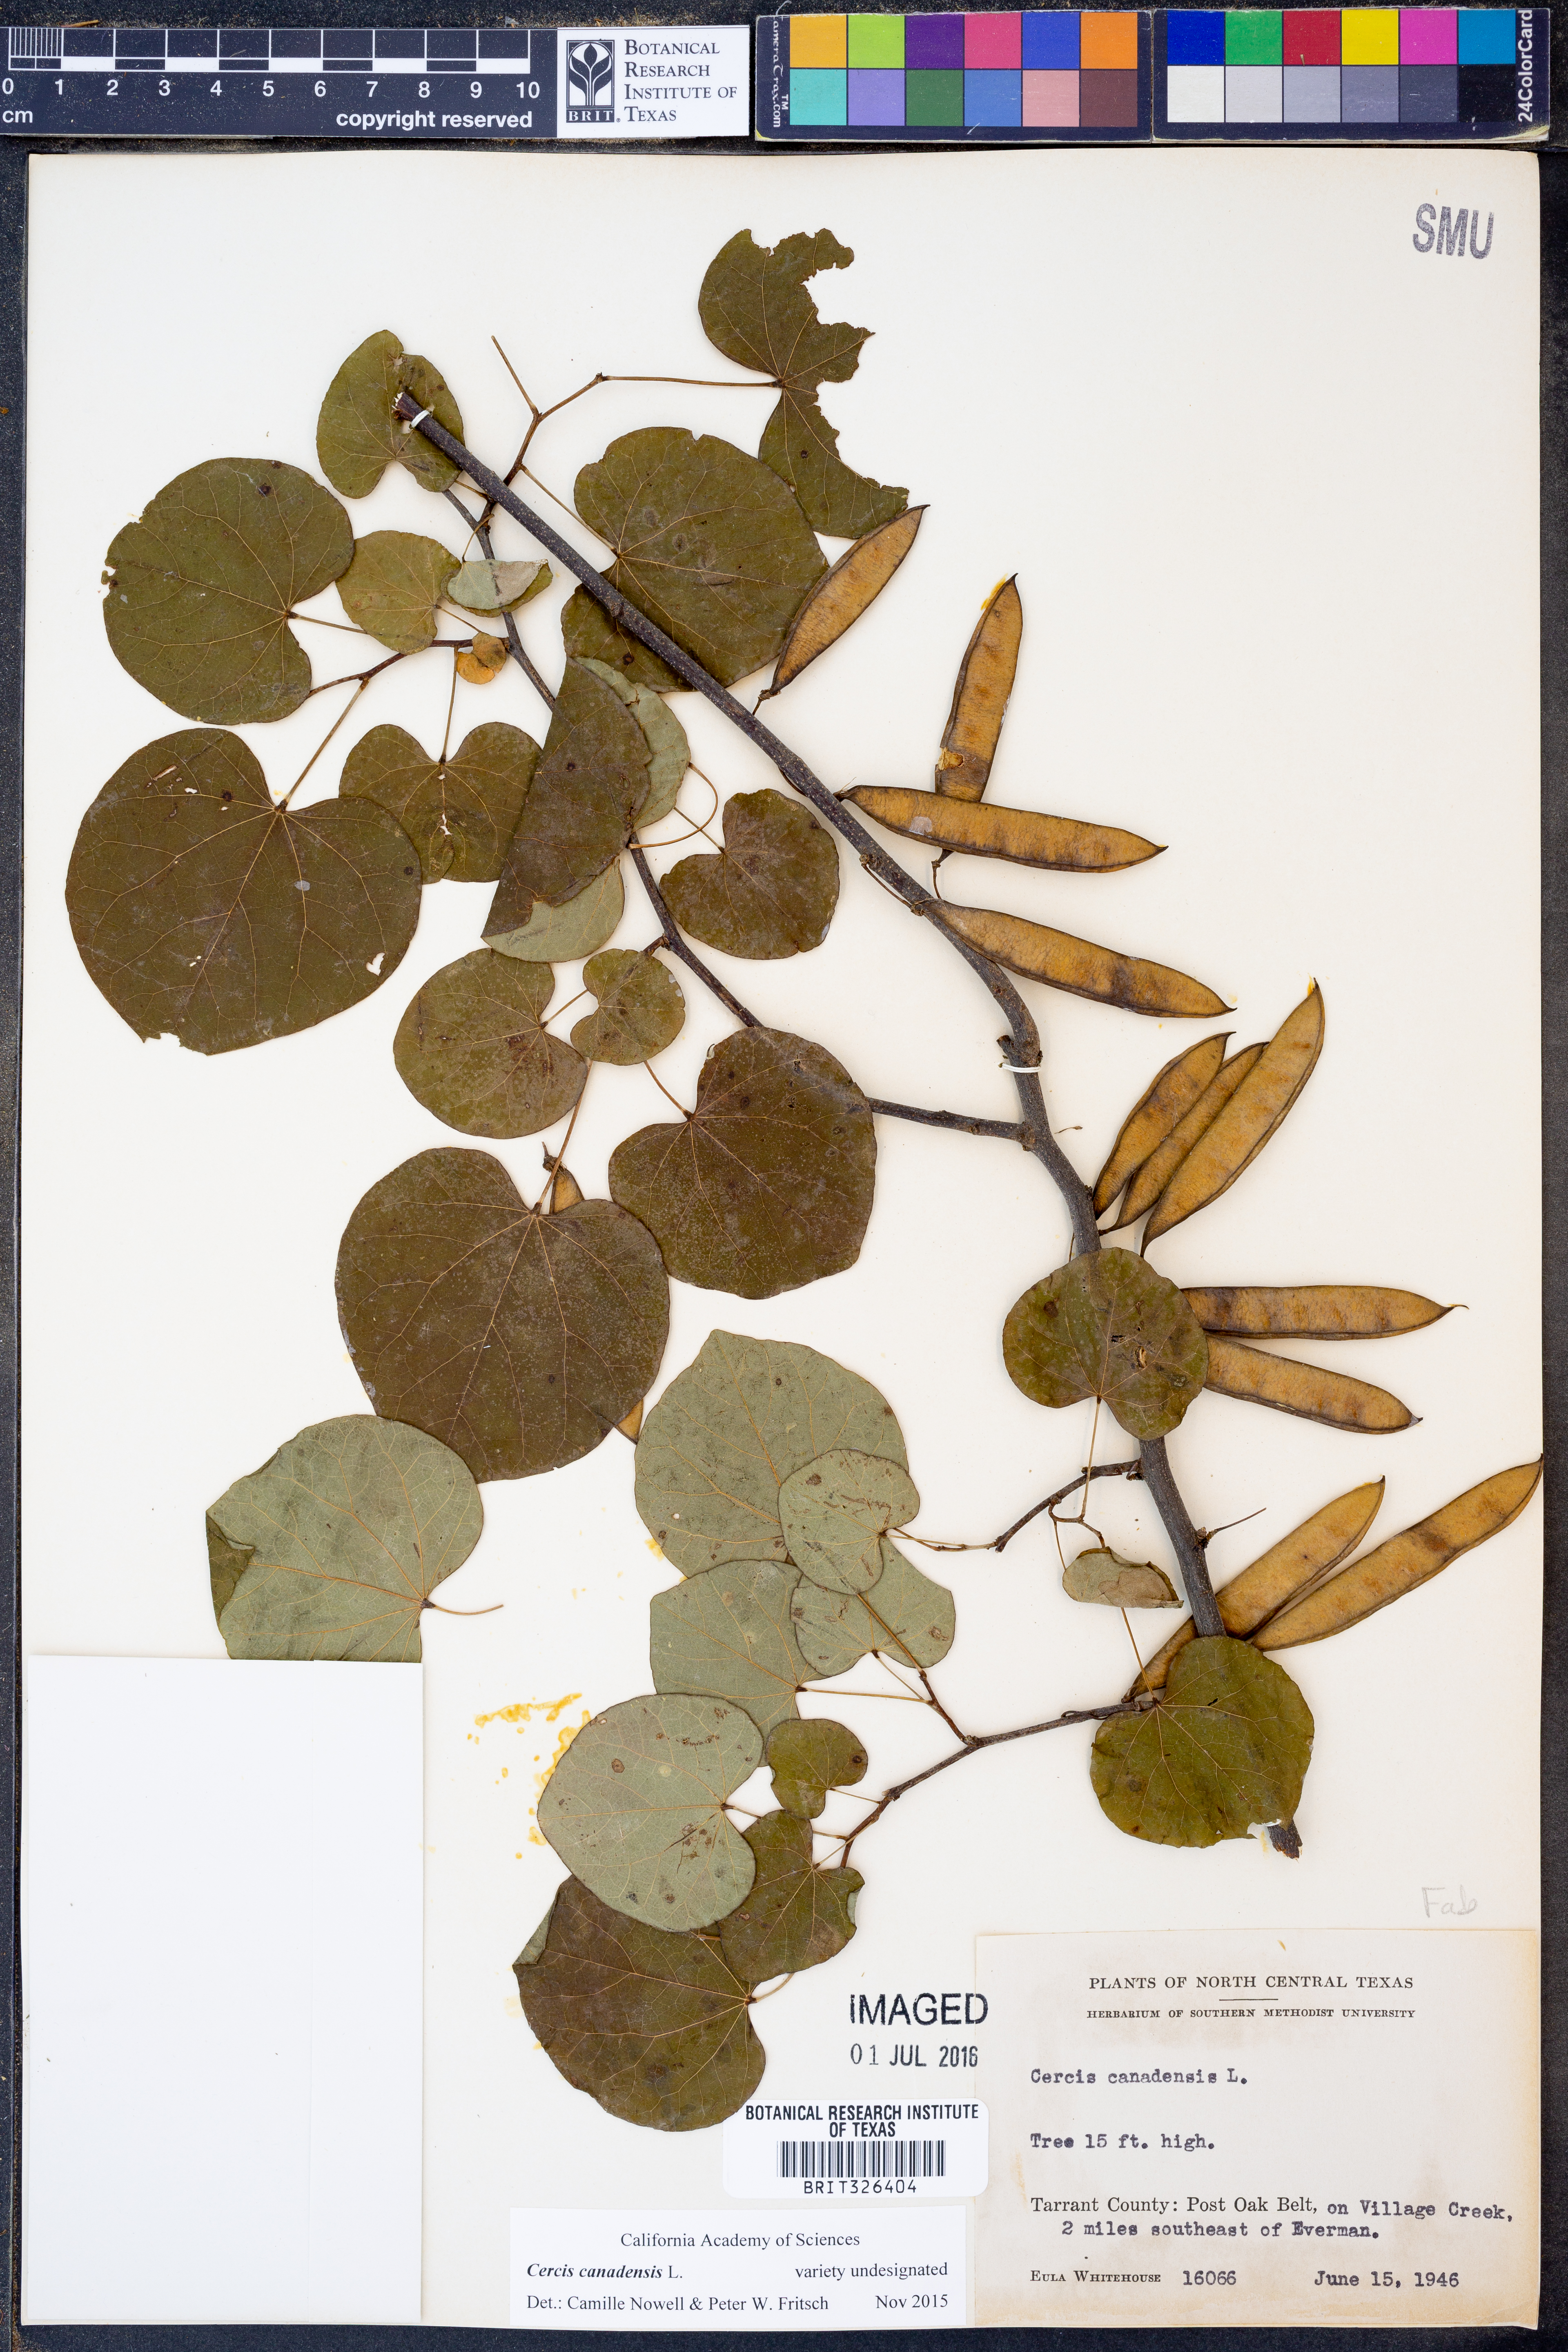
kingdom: Plantae
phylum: Tracheophyta
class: Magnoliopsida
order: Fabales
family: Fabaceae
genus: Cercis
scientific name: Cercis canadensis
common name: Eastern redbud
